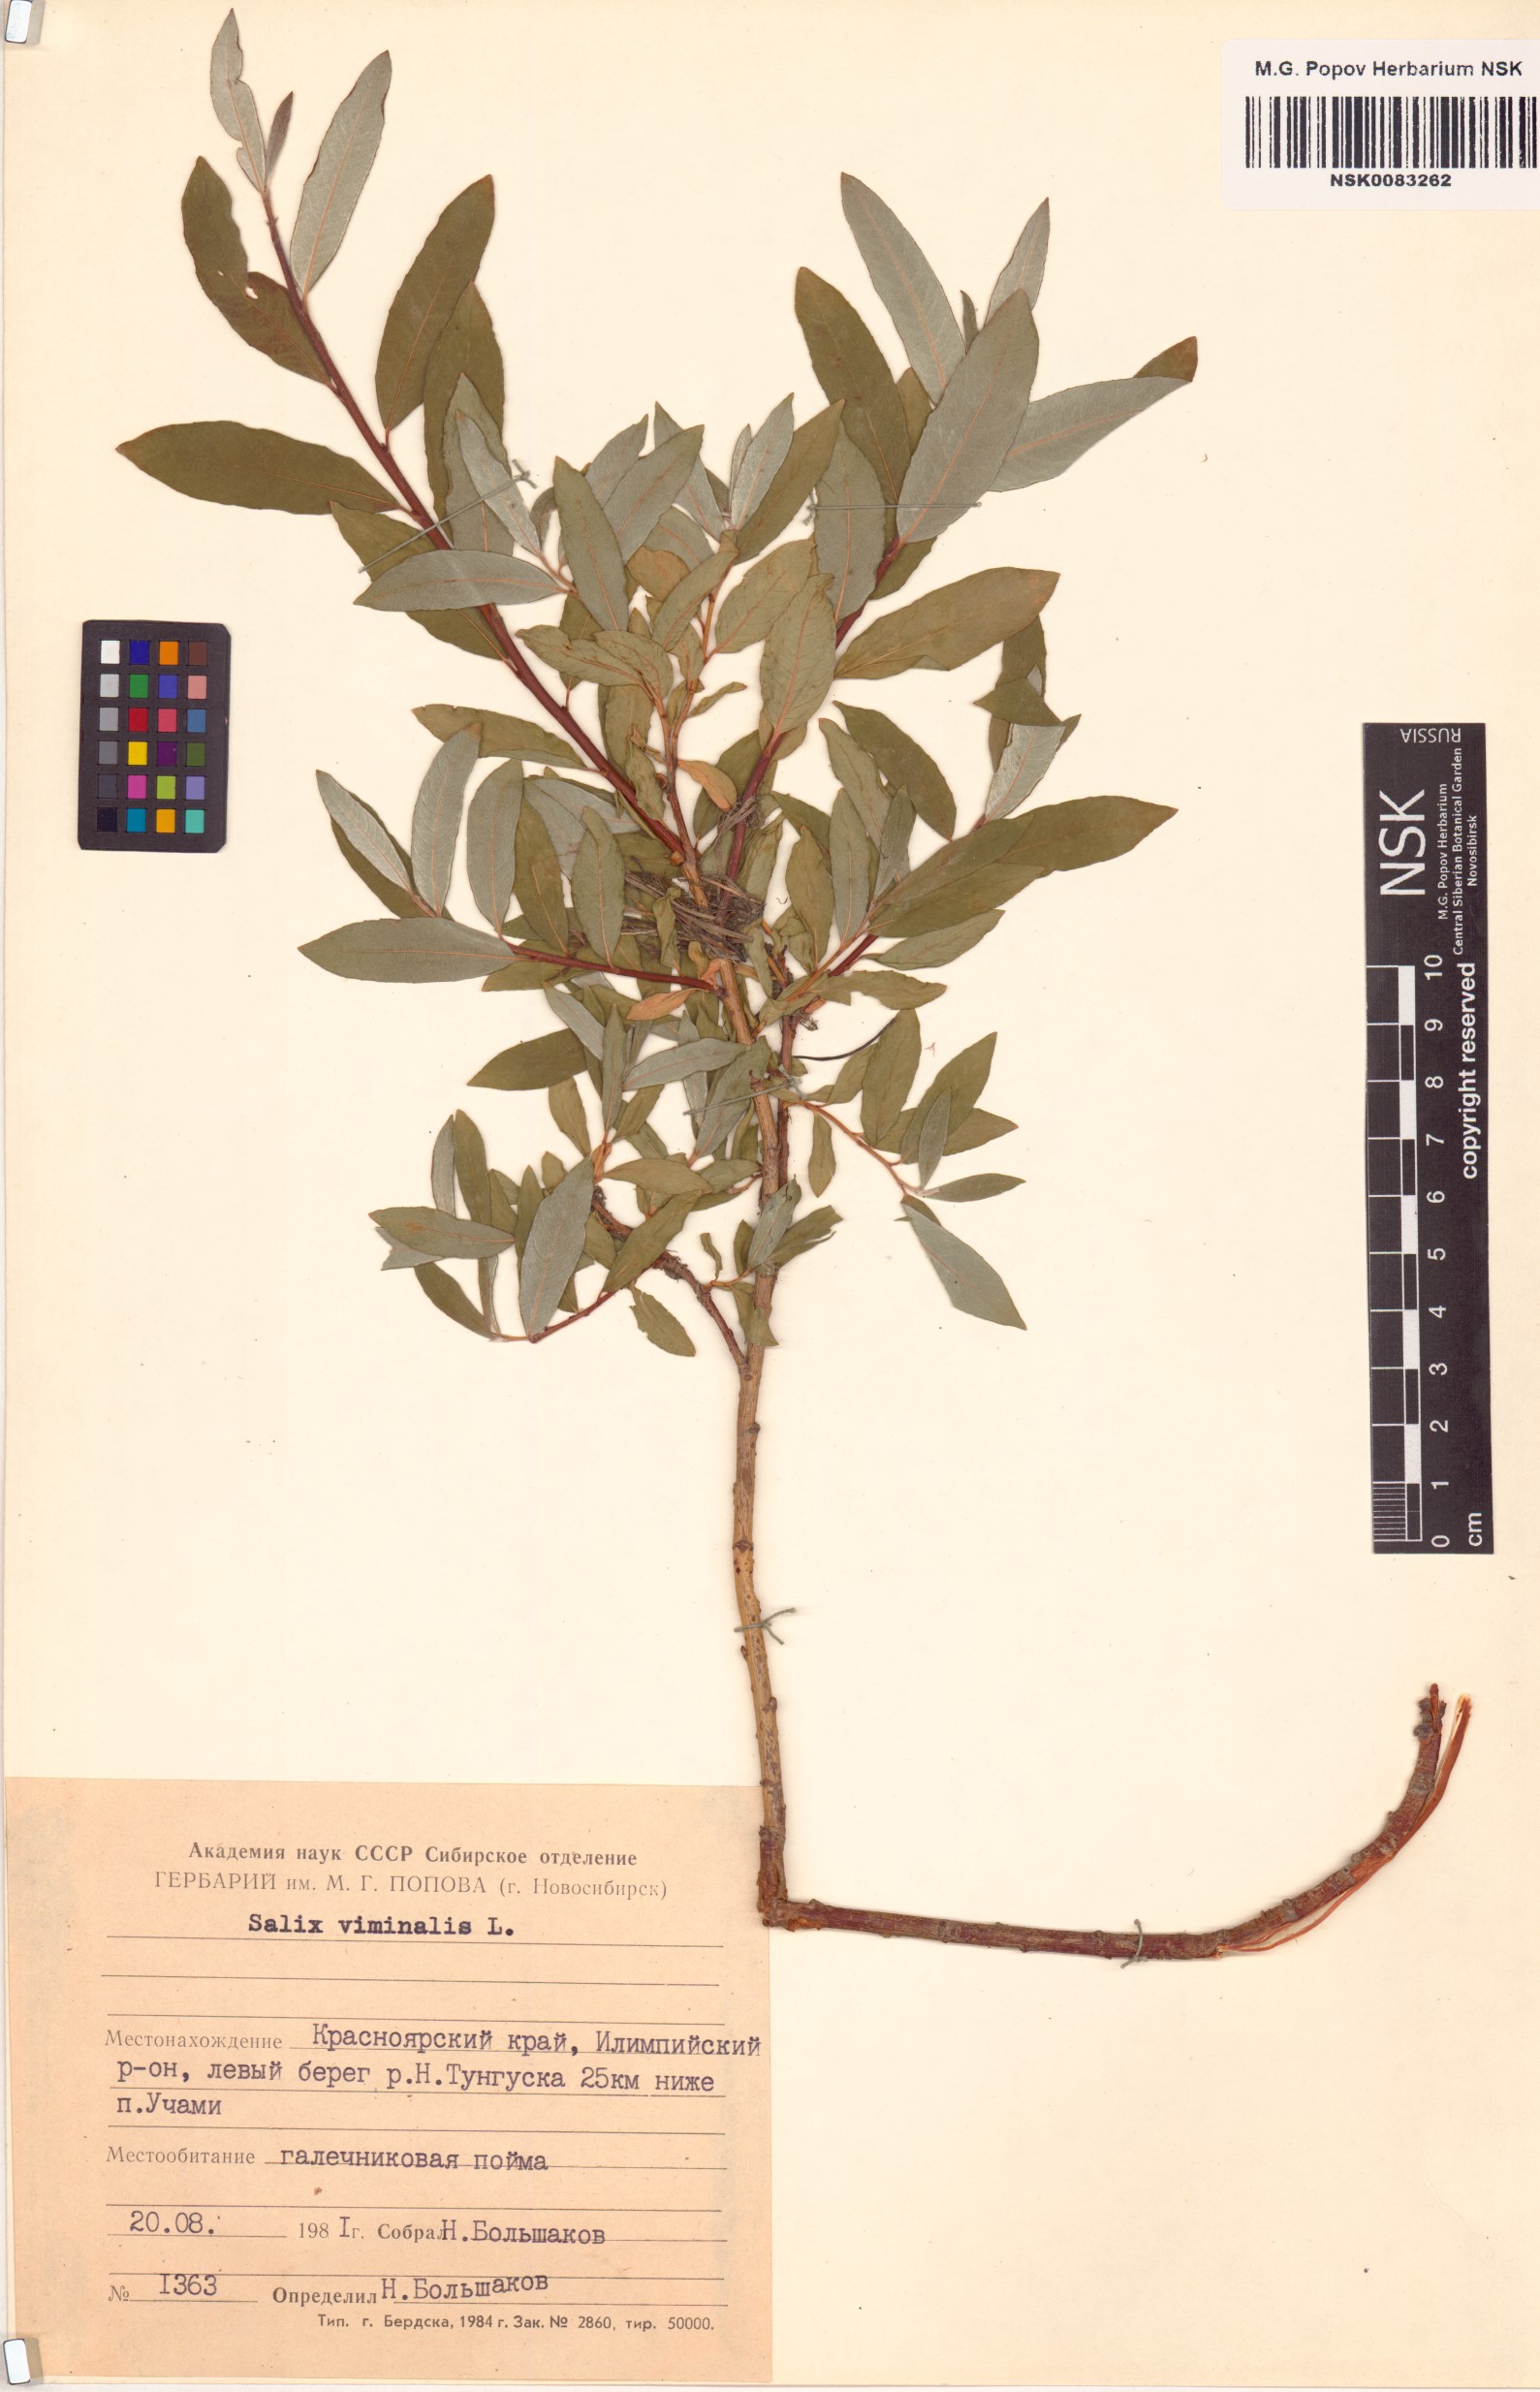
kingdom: Plantae
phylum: Tracheophyta
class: Magnoliopsida
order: Malpighiales
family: Salicaceae
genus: Salix
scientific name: Salix viminalis
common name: Osier
